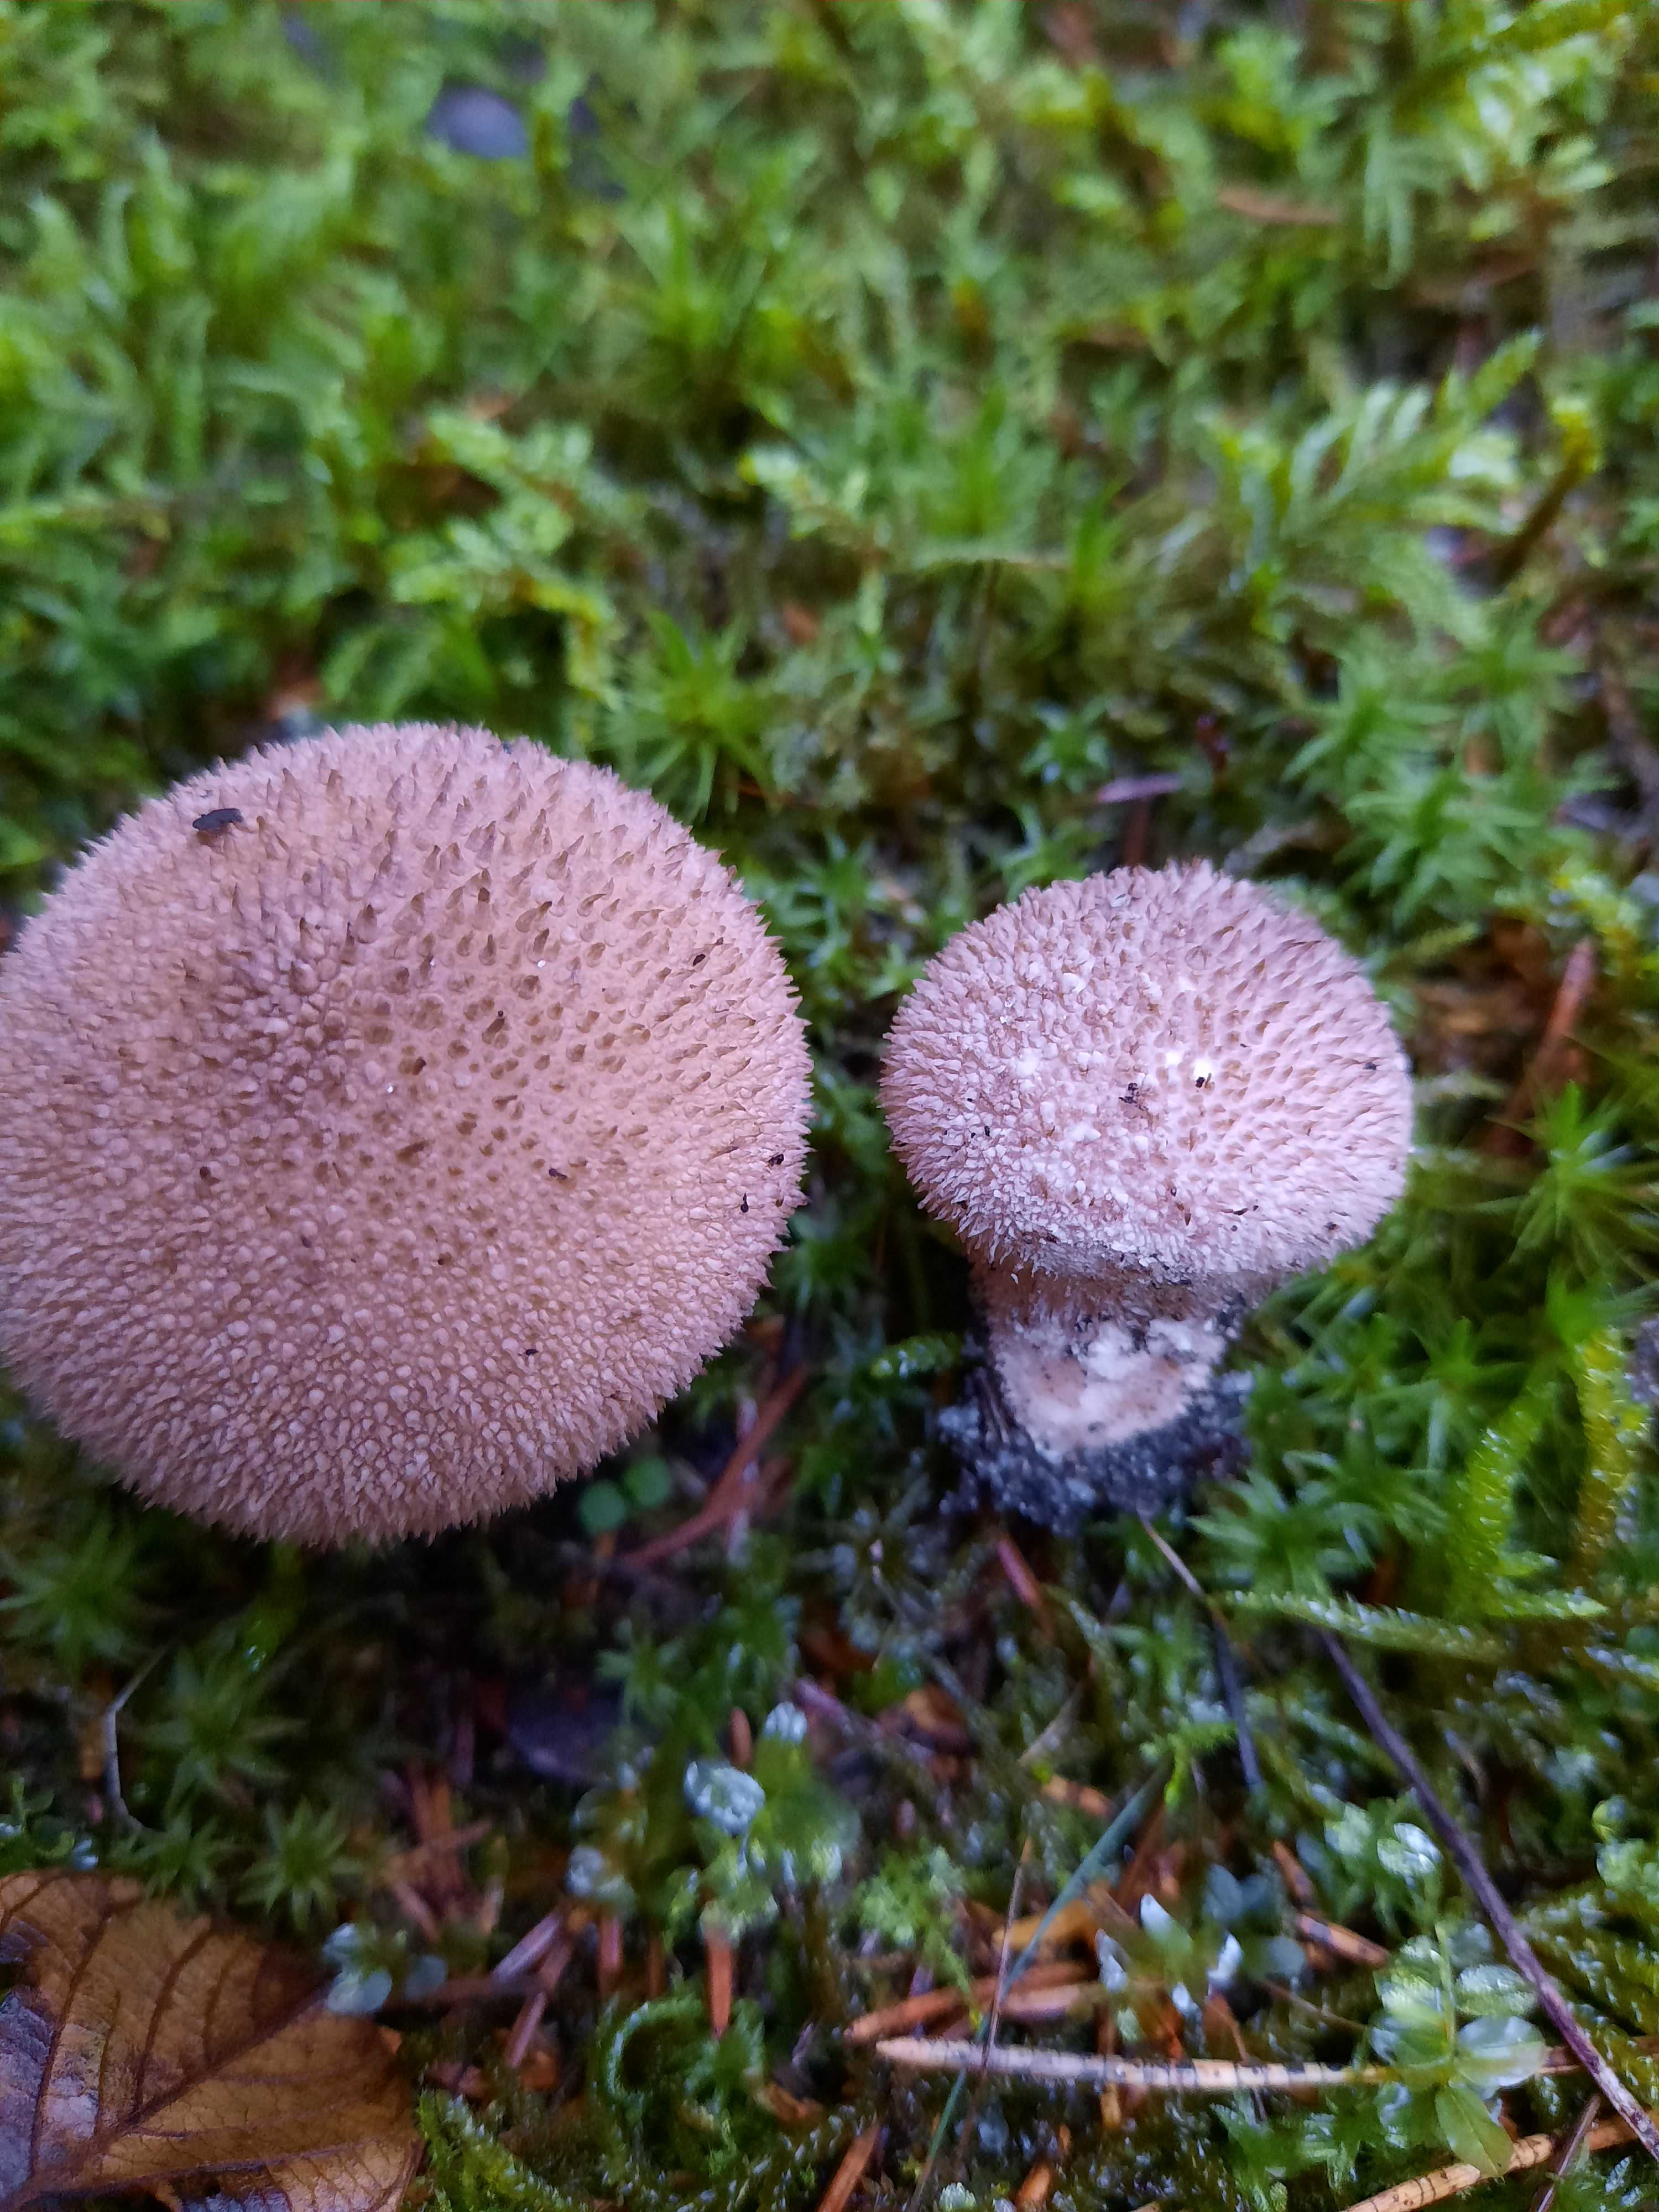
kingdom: Fungi
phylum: Basidiomycota
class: Agaricomycetes
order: Agaricales
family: Lycoperdaceae
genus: Lycoperdon
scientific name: Lycoperdon perlatum
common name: krystal-støvbold
